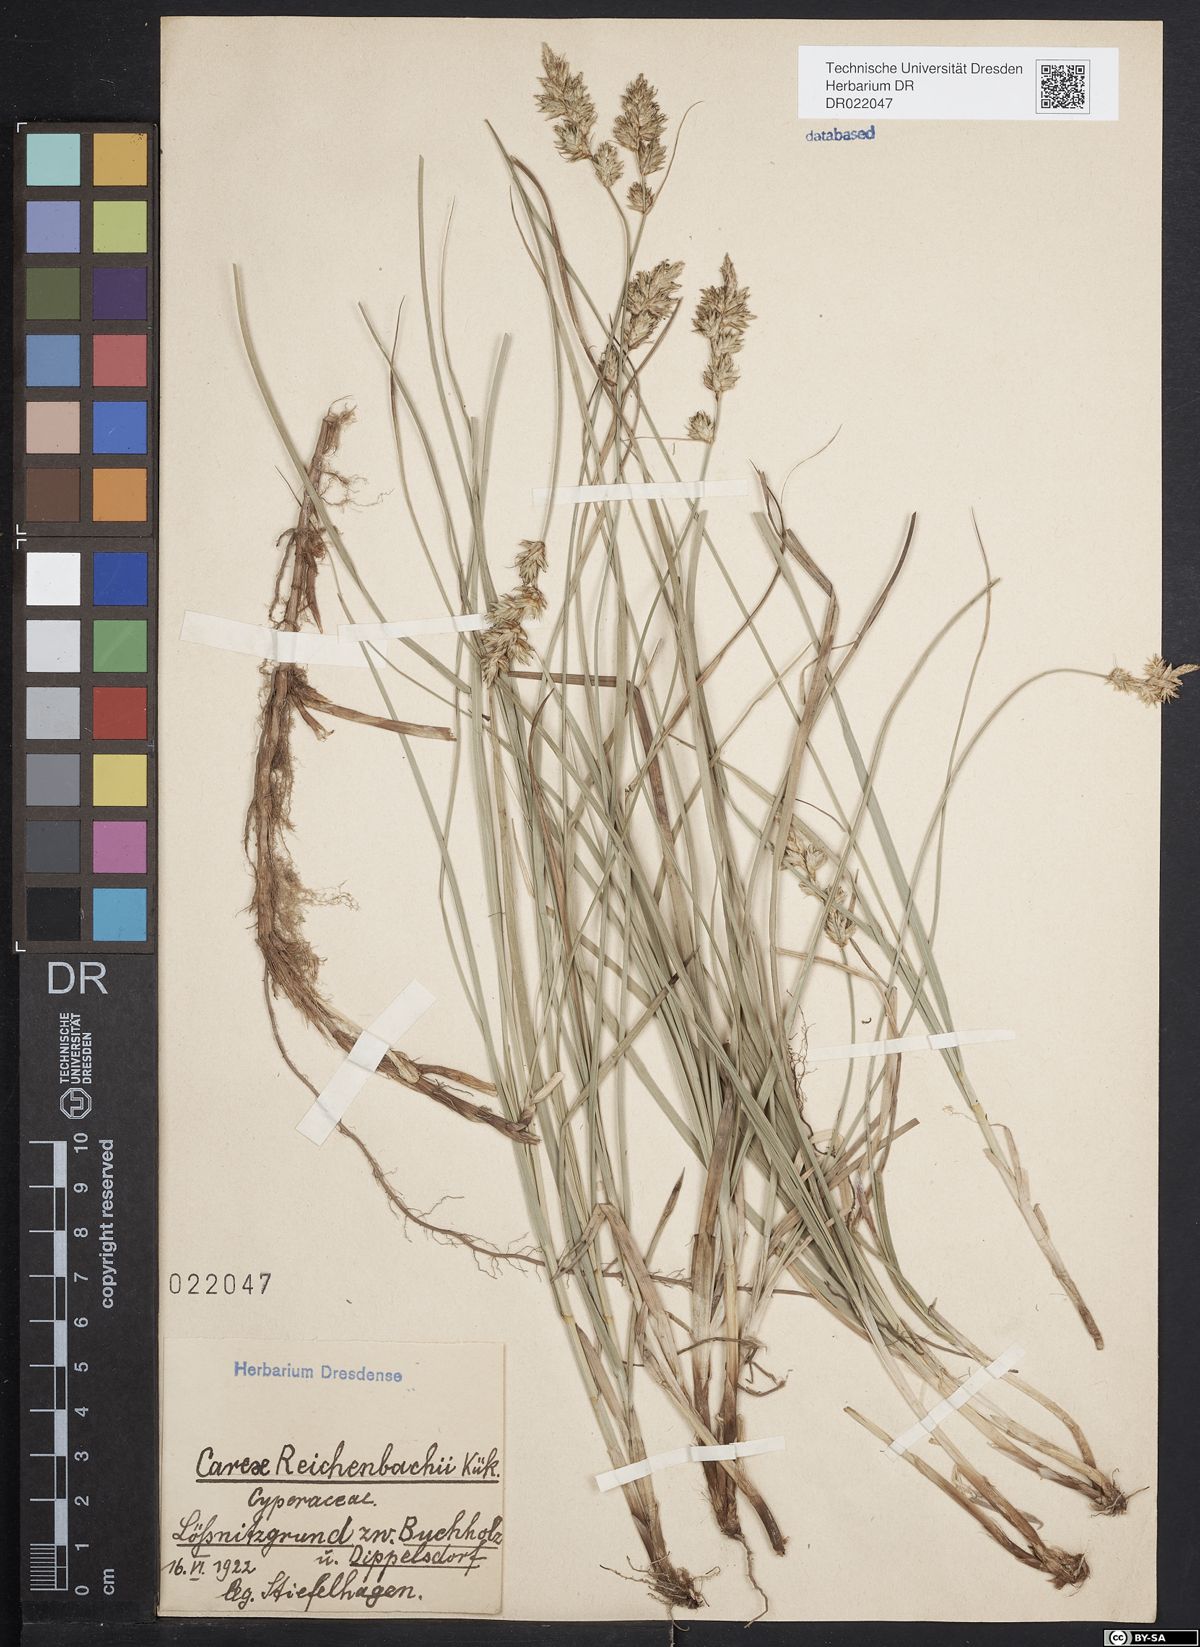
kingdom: Plantae
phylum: Tracheophyta
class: Liliopsida
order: Poales
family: Cyperaceae
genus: Carex
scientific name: Carex pseudobrizoides
